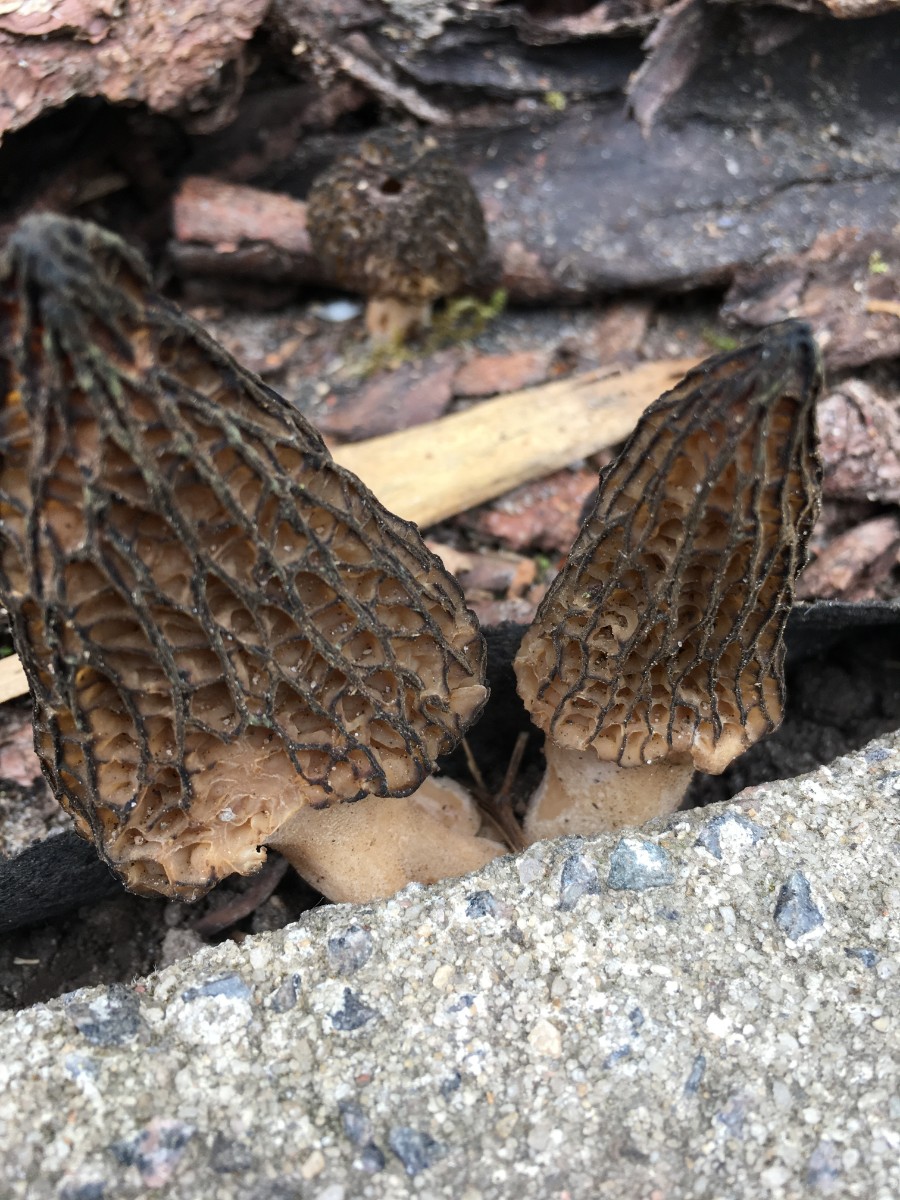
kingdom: Fungi
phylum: Ascomycota
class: Pezizomycetes
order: Pezizales
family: Morchellaceae
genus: Morchella
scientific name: Morchella importuna
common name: Landscaping black morel
